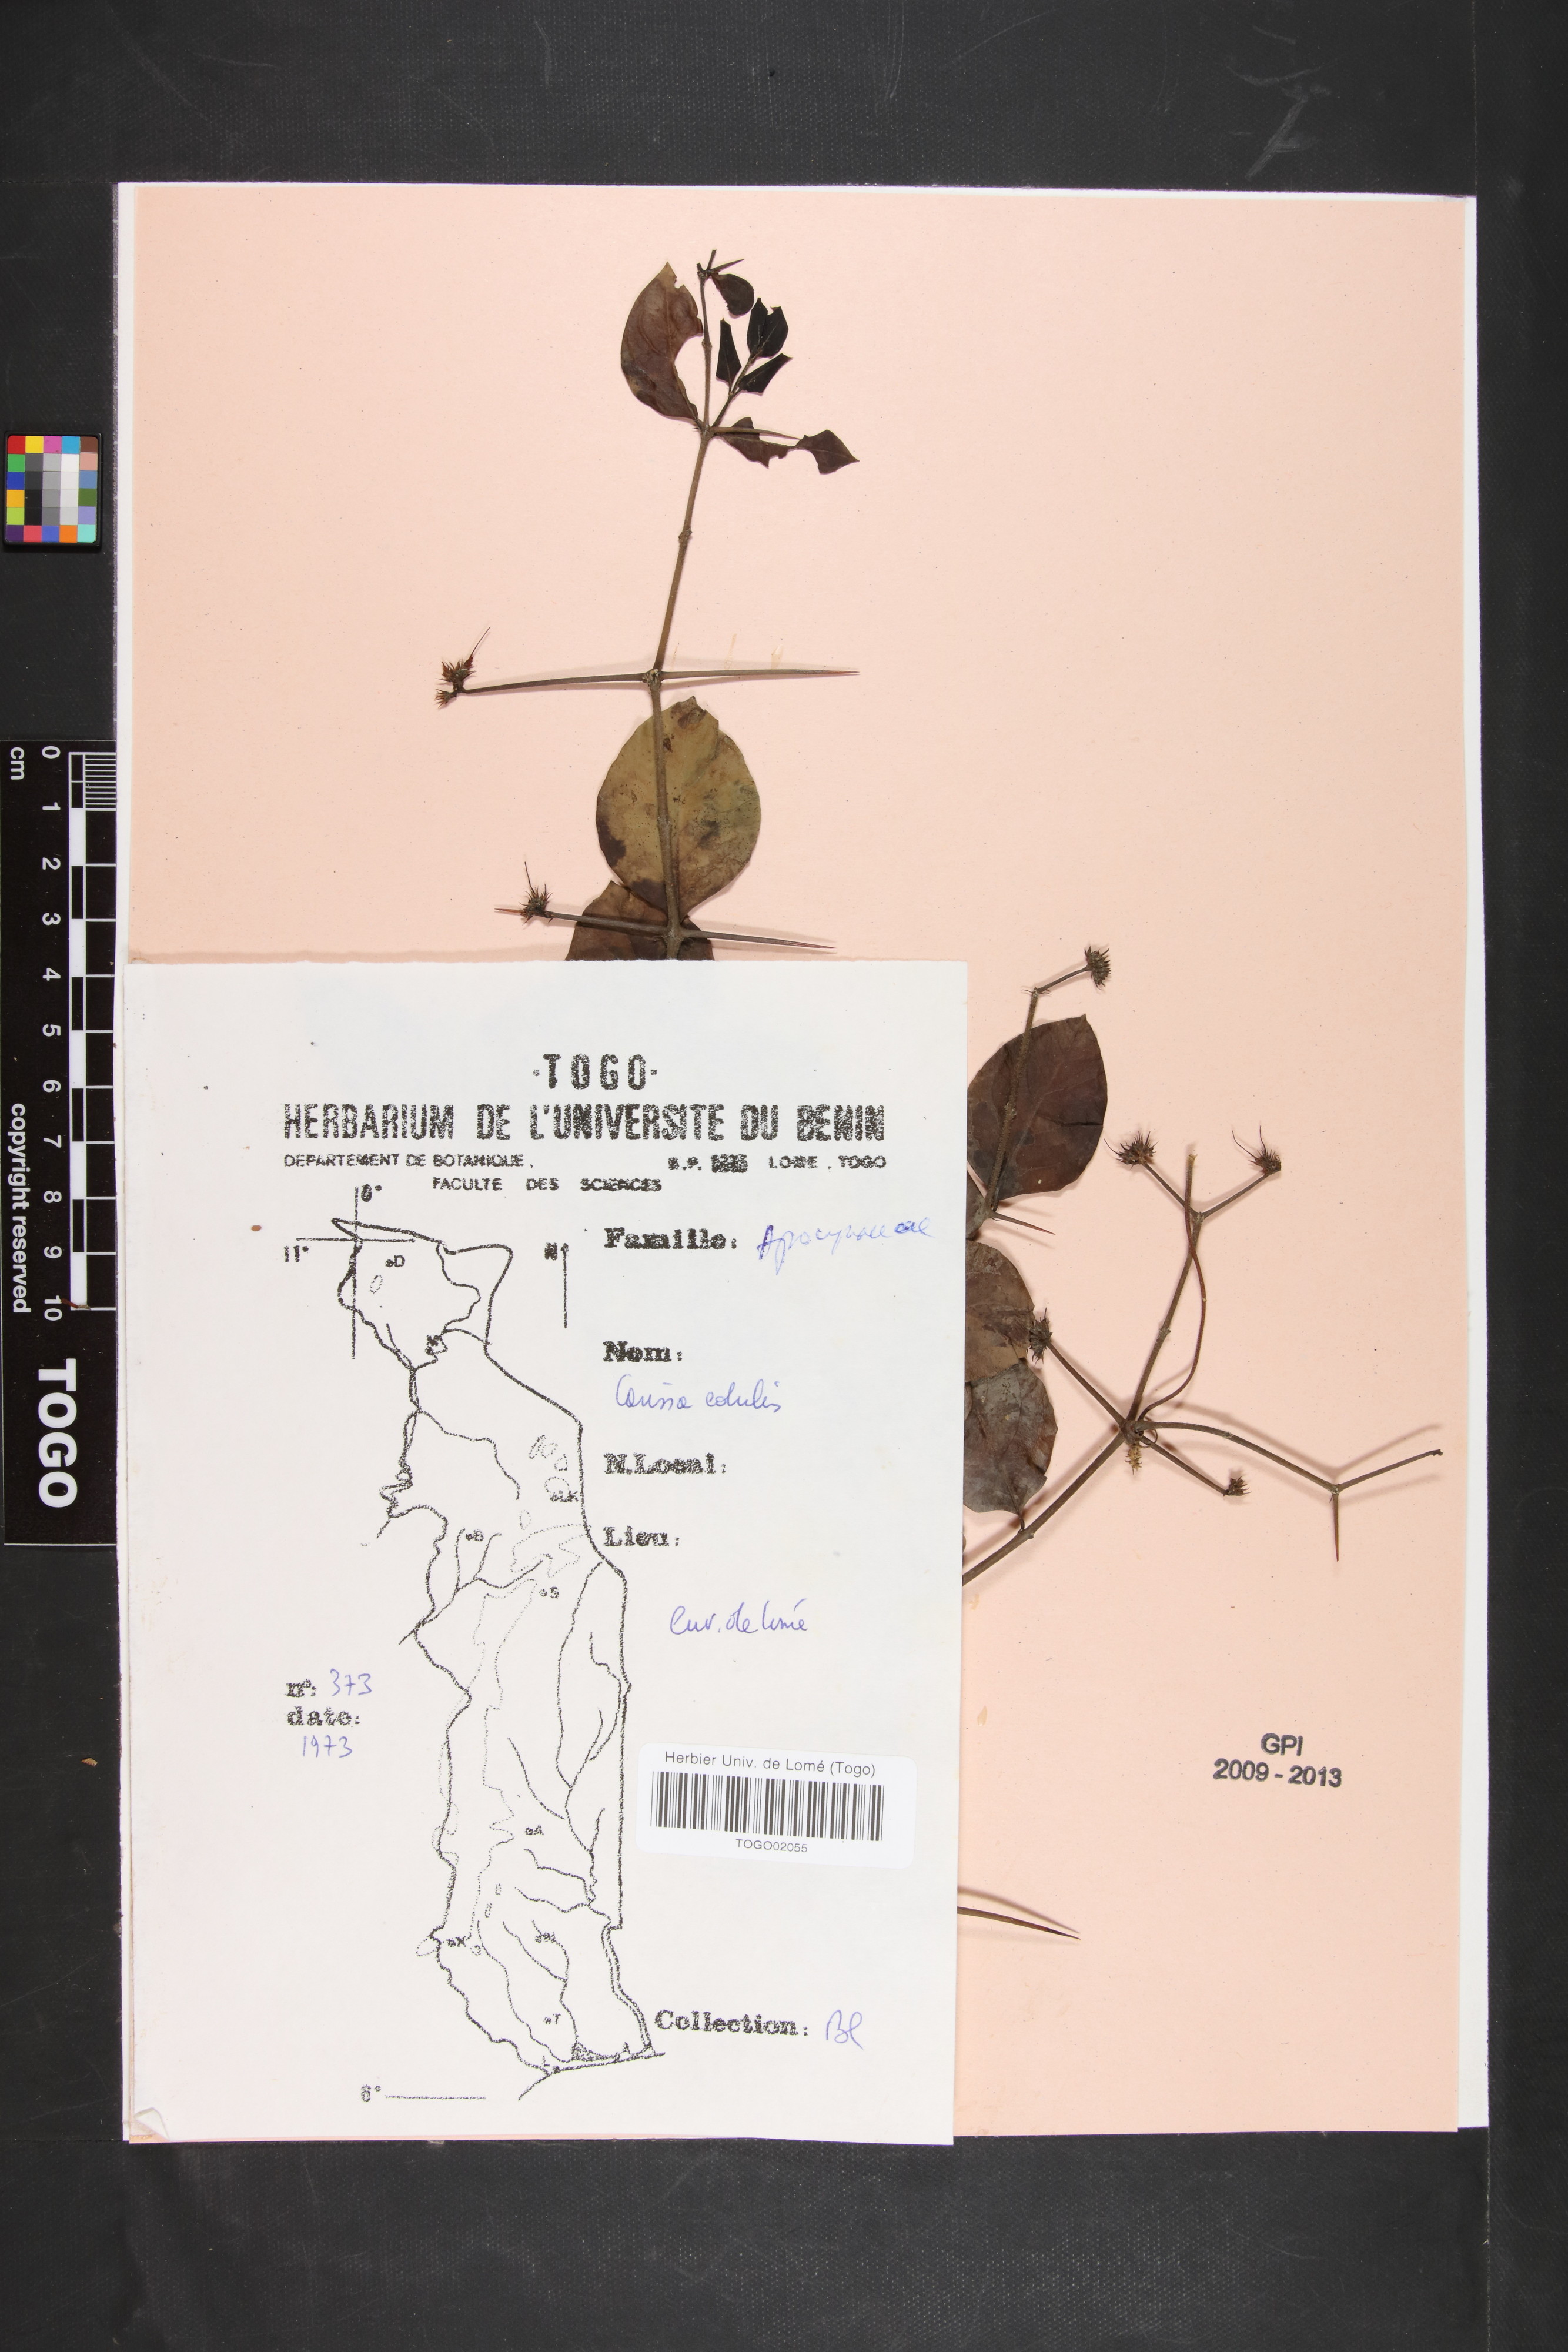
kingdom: Plantae
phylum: Tracheophyta
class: Magnoliopsida
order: Gentianales
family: Apocynaceae
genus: Carissa
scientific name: Carissa spinarum
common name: Egyptian carissa
